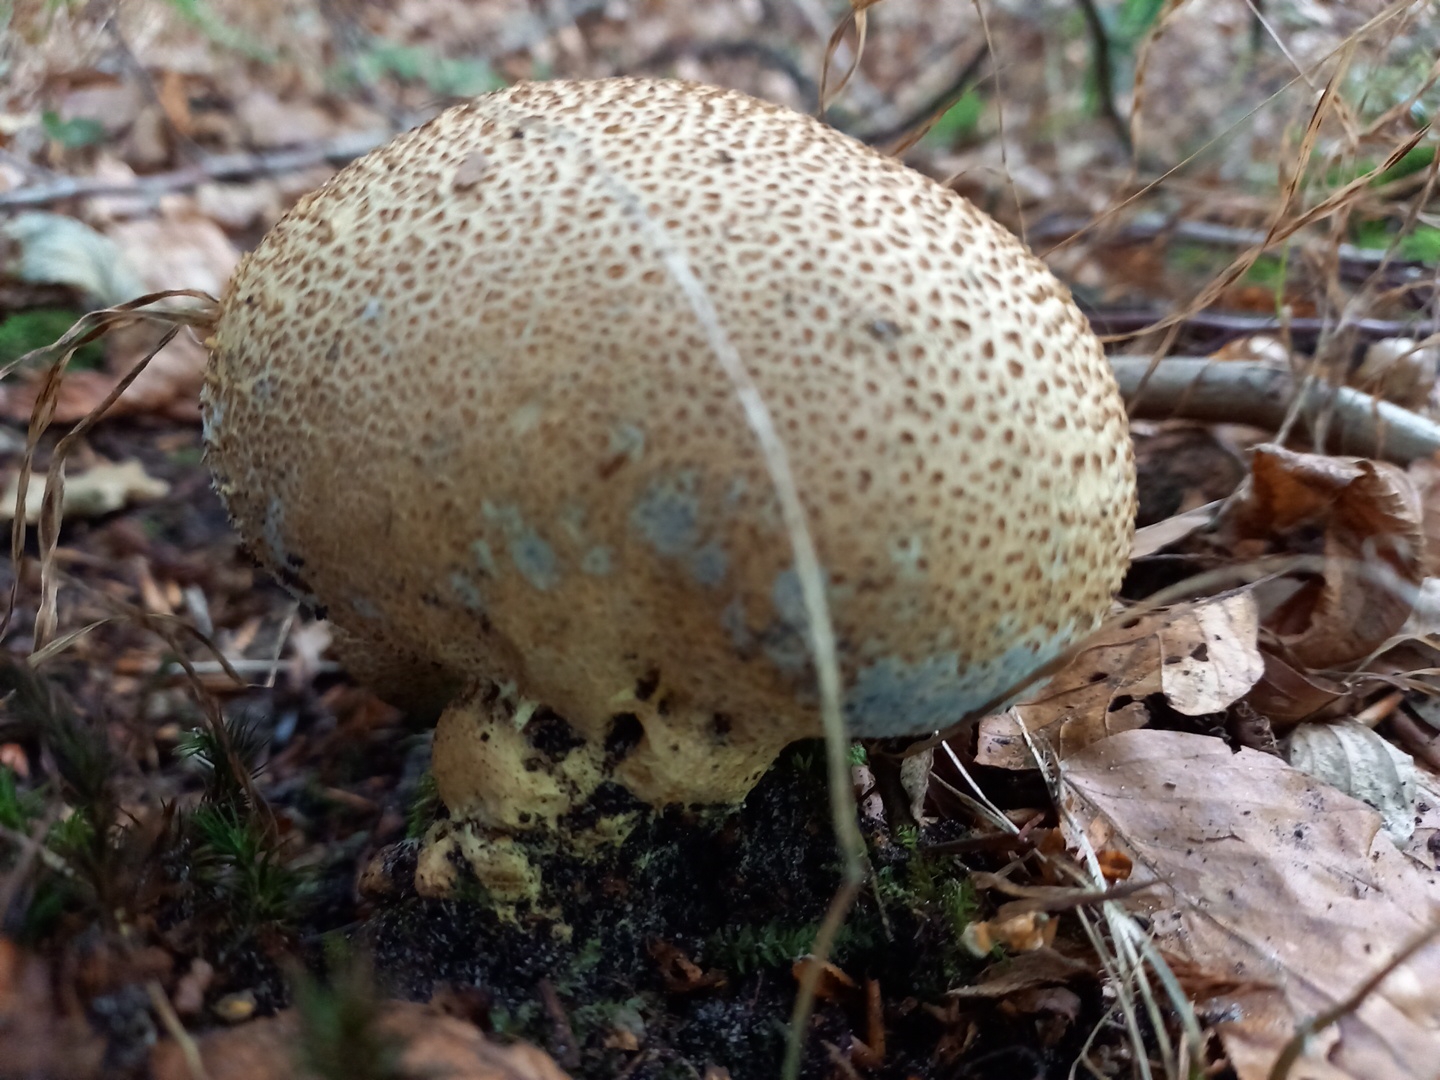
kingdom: Fungi
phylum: Basidiomycota
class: Agaricomycetes
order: Boletales
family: Sclerodermataceae
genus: Scleroderma
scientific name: Scleroderma verrucosum
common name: stilket bruskbold
